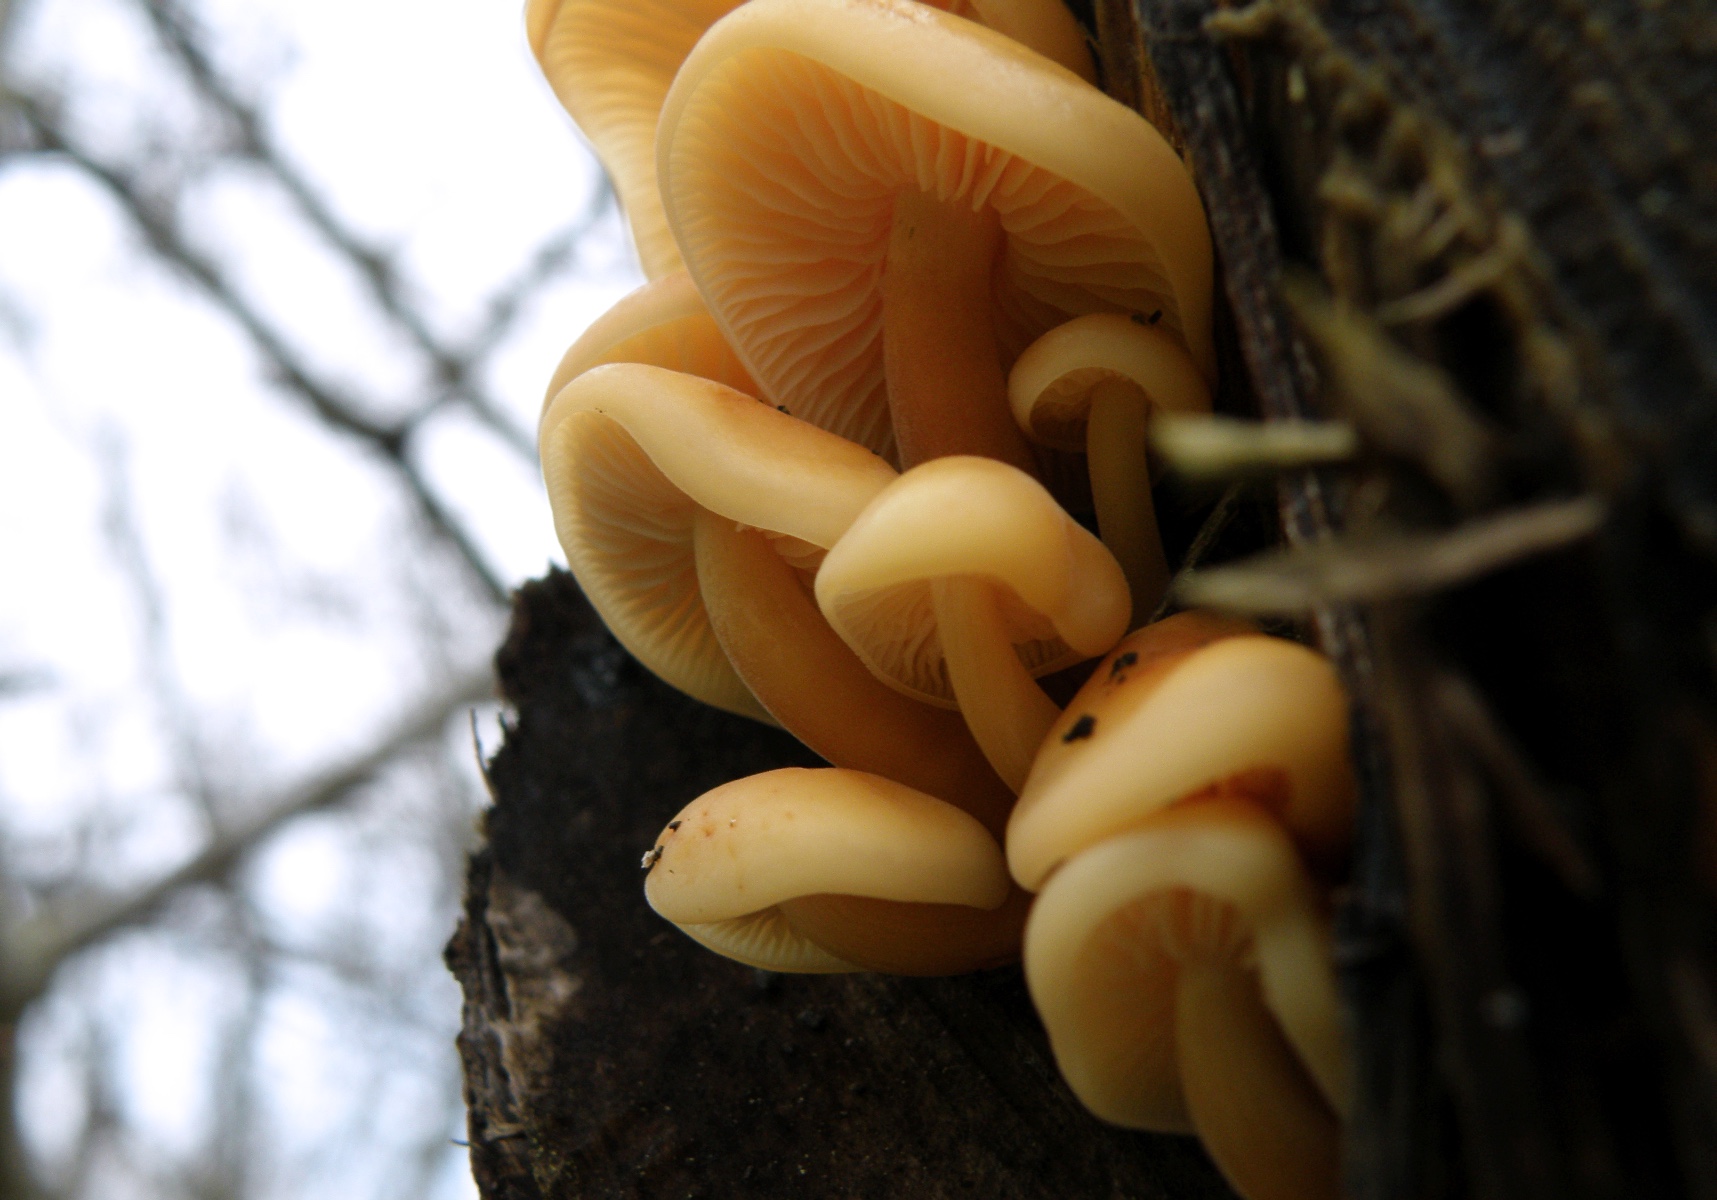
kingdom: Fungi
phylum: Basidiomycota
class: Agaricomycetes
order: Agaricales
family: Physalacriaceae
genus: Flammulina
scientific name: Flammulina
